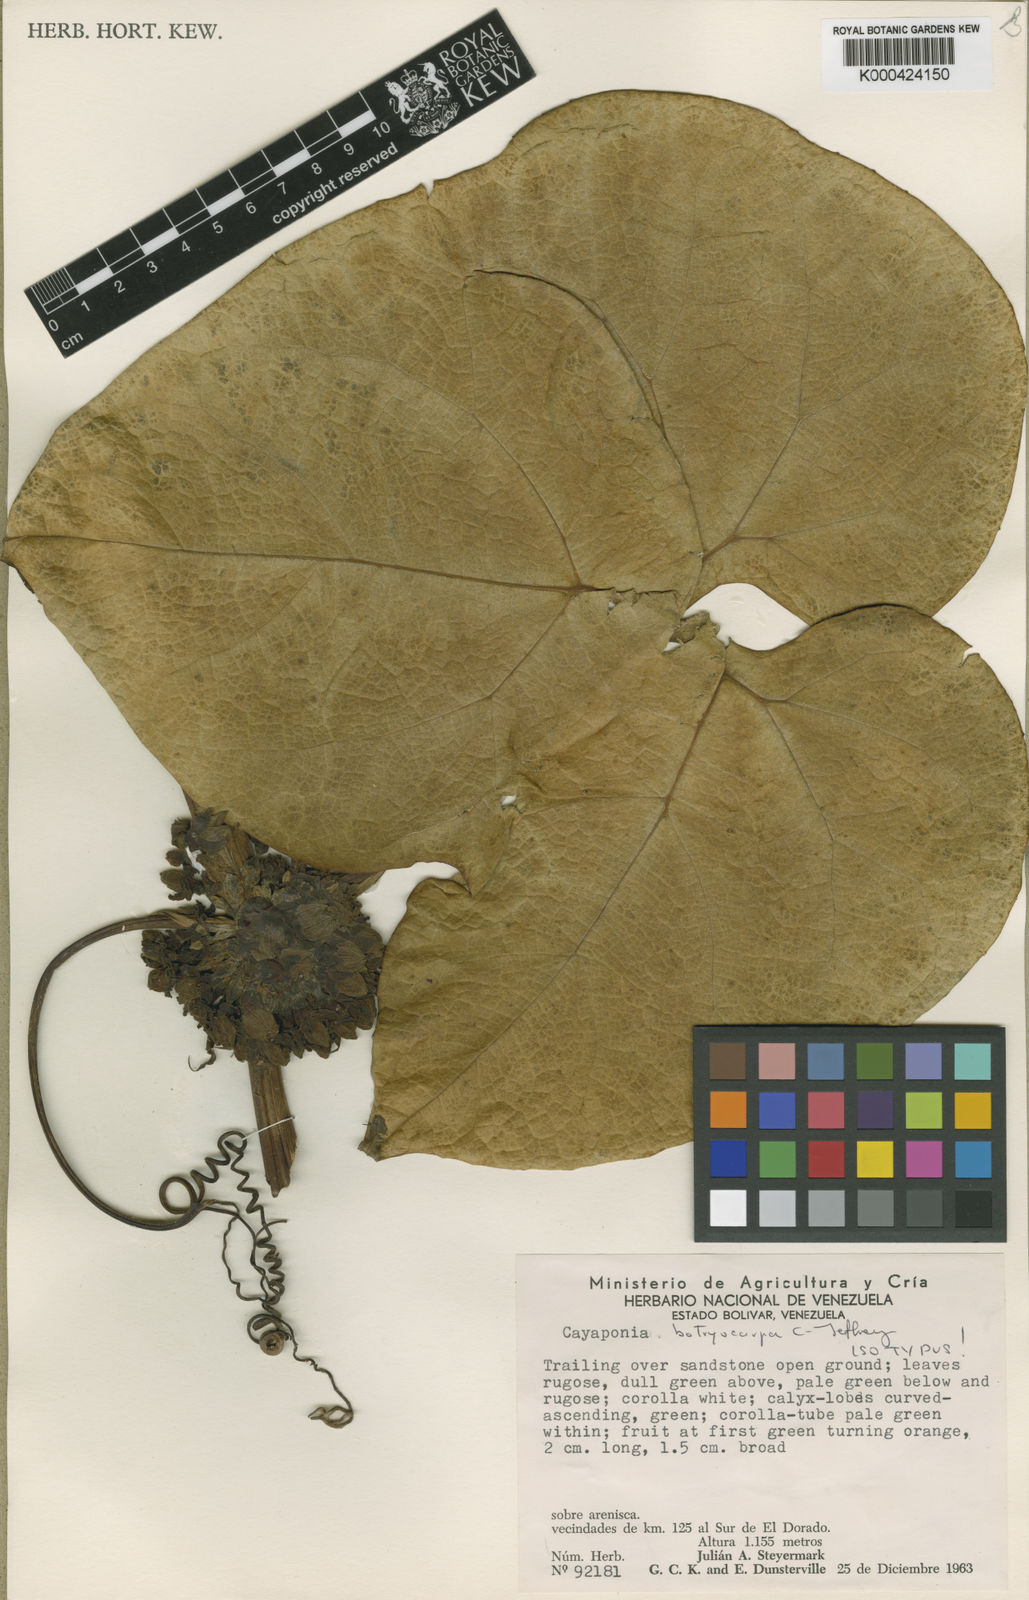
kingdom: Plantae
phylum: Tracheophyta
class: Magnoliopsida
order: Cucurbitales
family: Cucurbitaceae
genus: Cayaponia
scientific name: Cayaponia botryocarpa
